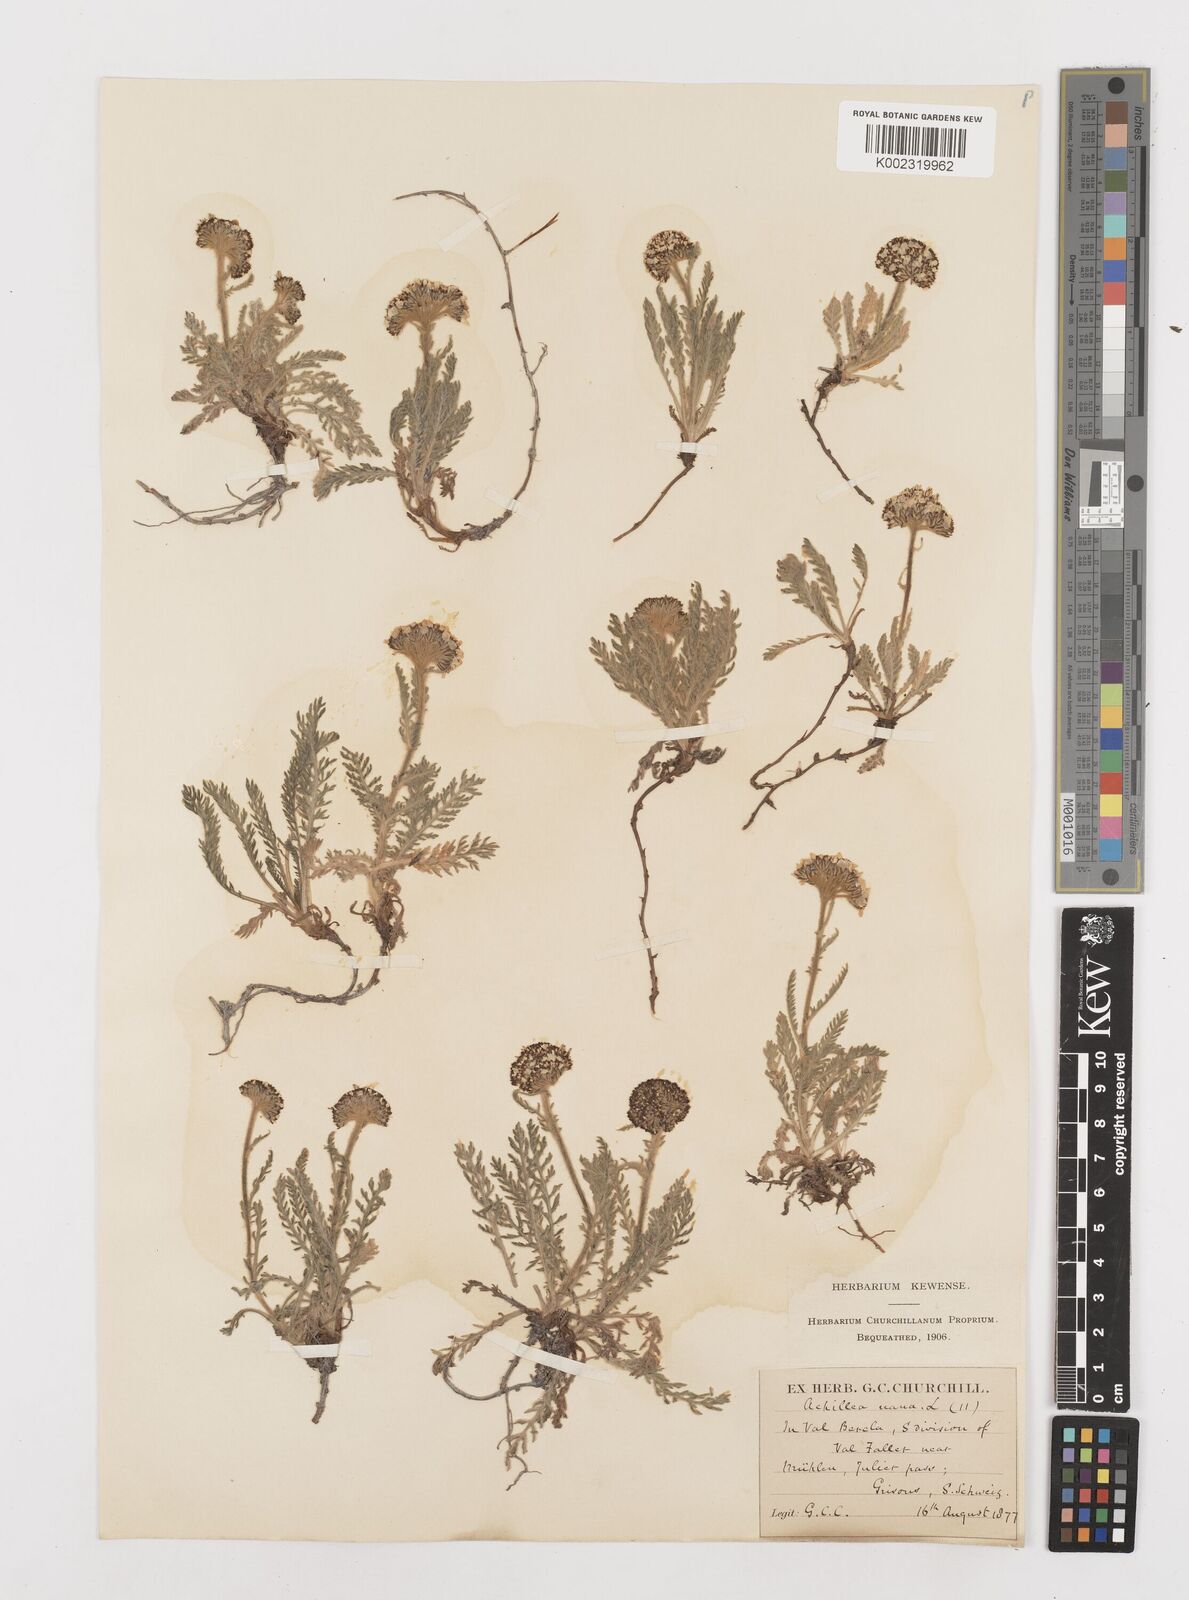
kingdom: Plantae
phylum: Tracheophyta
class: Magnoliopsida
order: Asterales
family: Asteraceae
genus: Achillea
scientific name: Achillea erba-rotta
